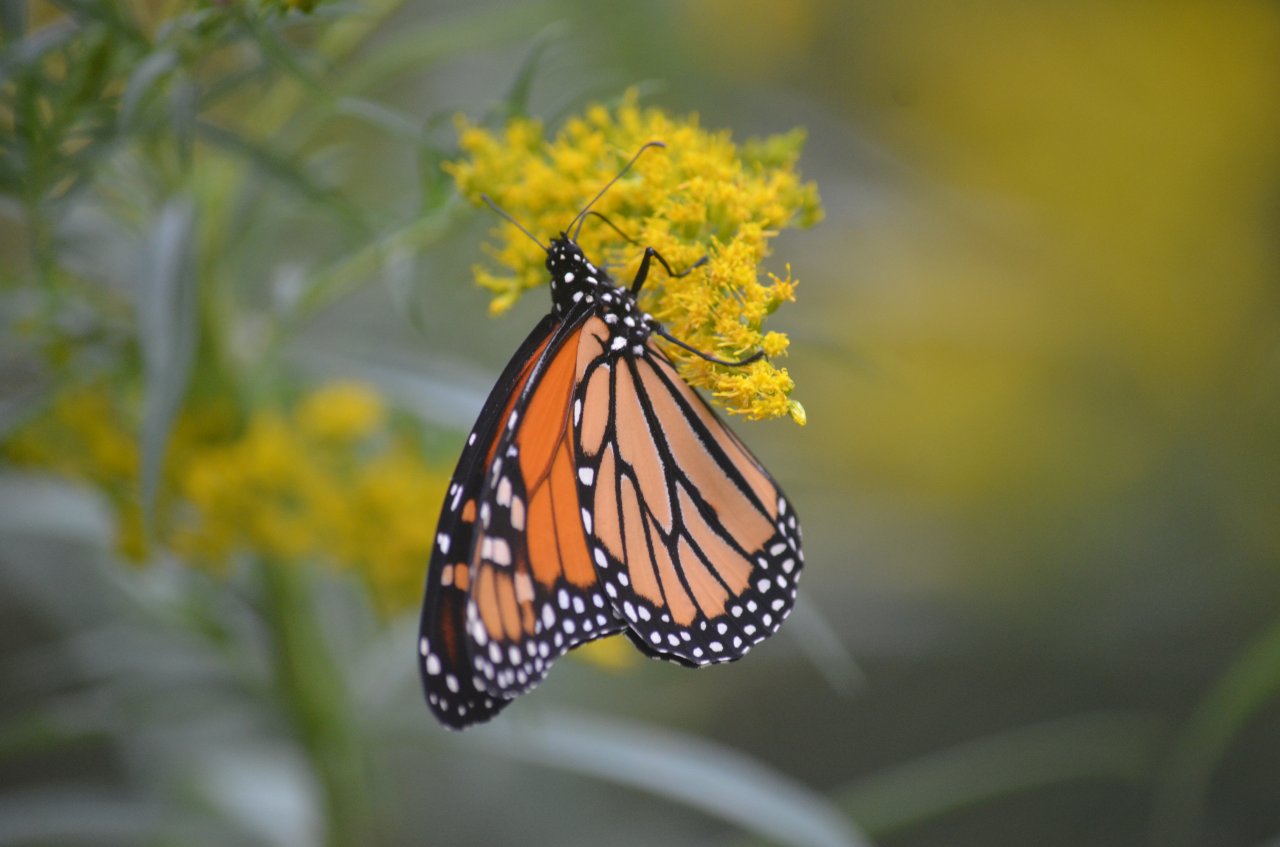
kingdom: Animalia
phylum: Arthropoda
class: Insecta
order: Lepidoptera
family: Nymphalidae
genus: Danaus
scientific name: Danaus plexippus
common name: Monarch
